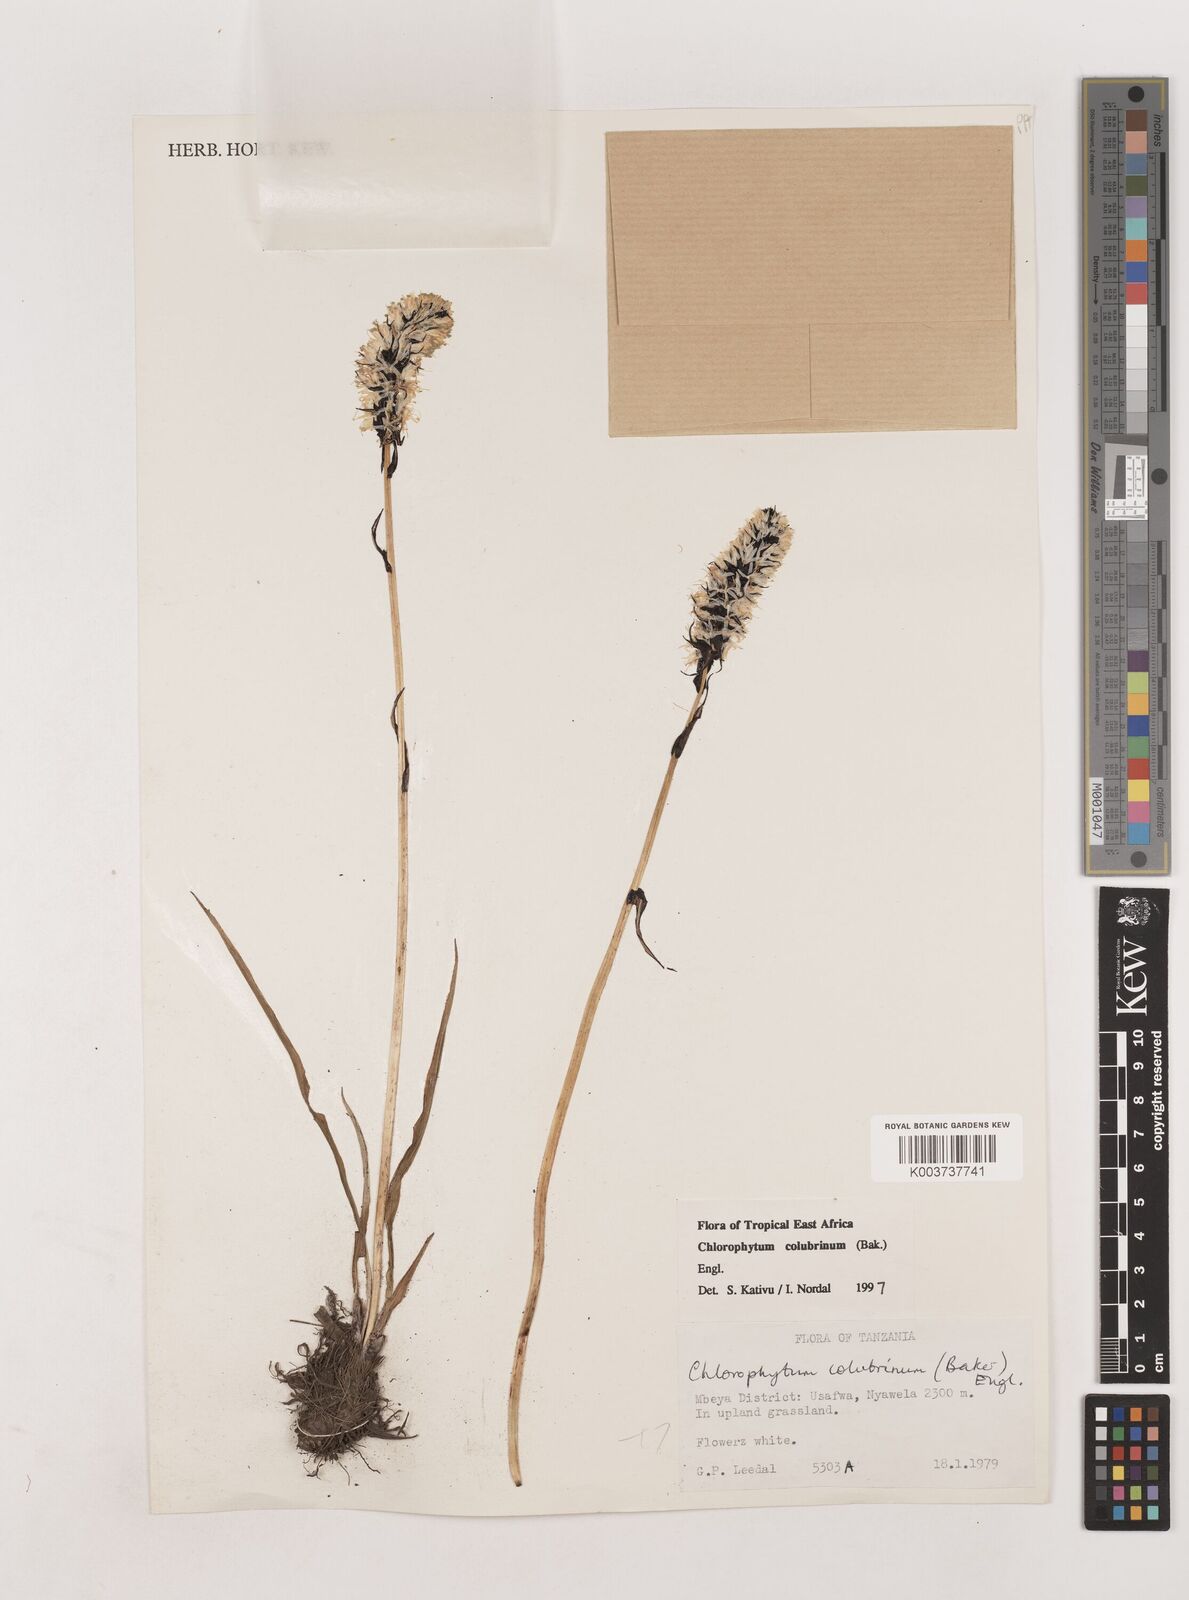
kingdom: Plantae
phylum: Tracheophyta
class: Liliopsida
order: Asparagales
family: Asparagaceae
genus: Chlorophytum
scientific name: Chlorophytum colubrinum
